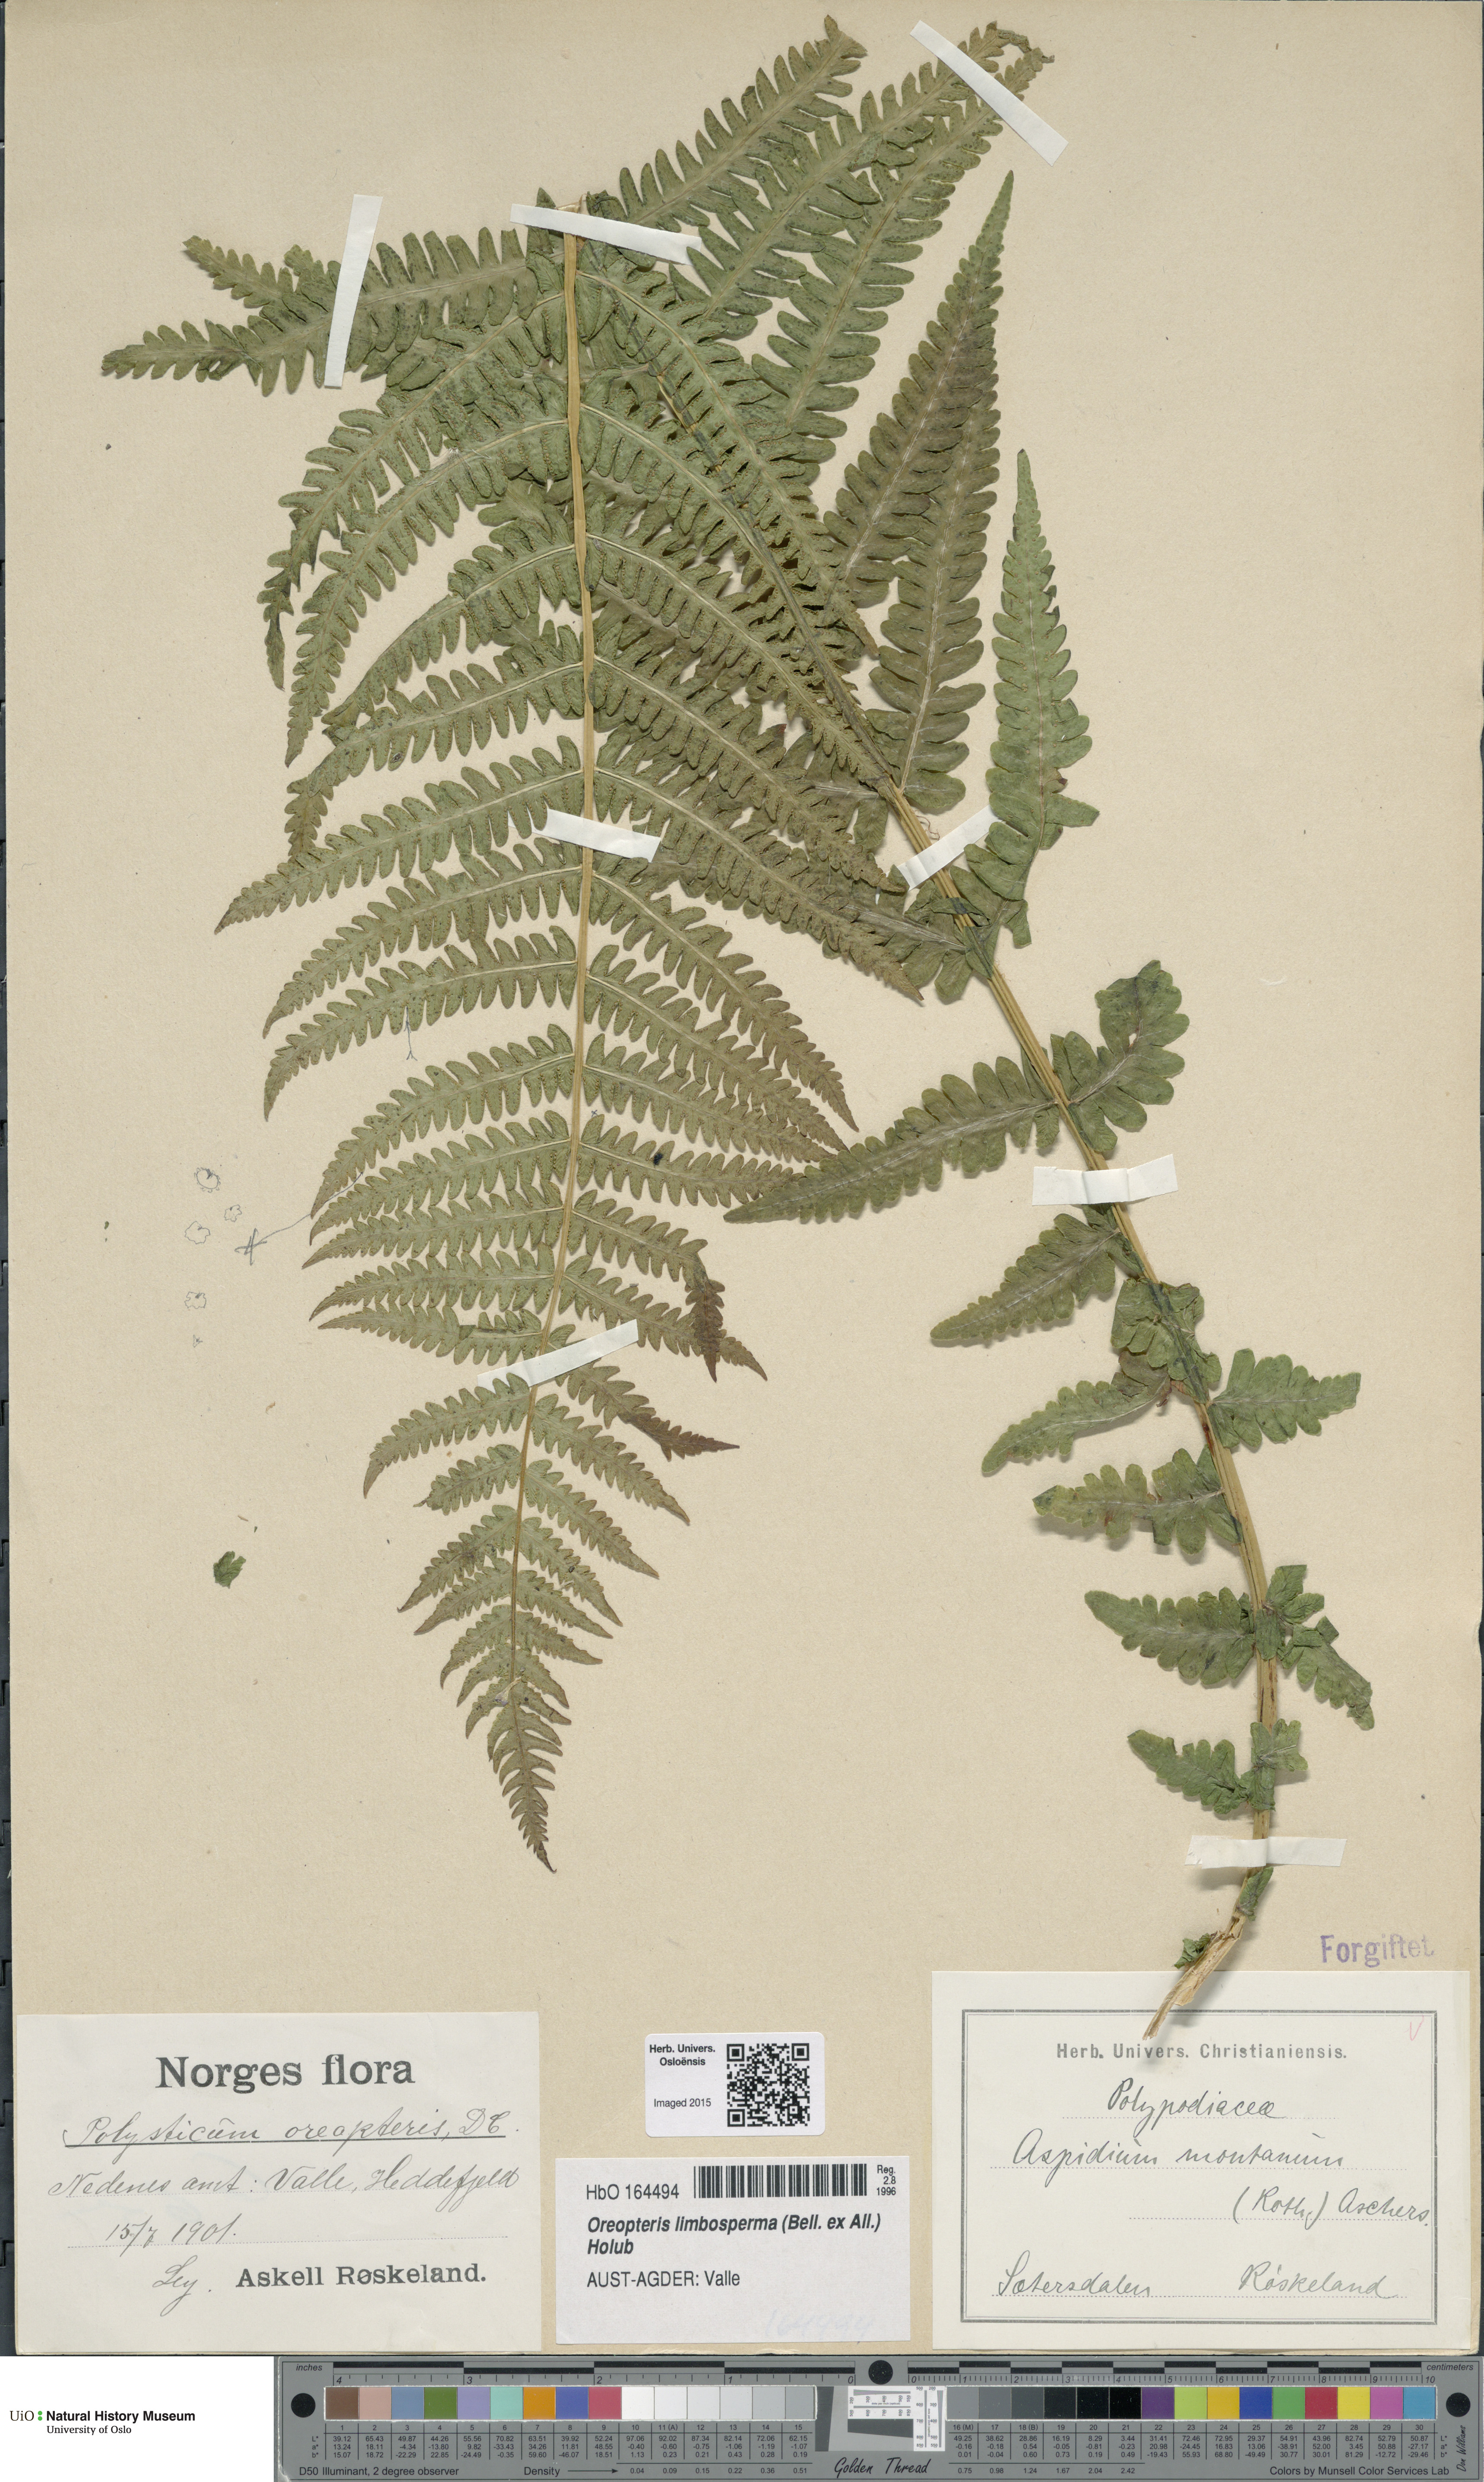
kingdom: Plantae
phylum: Tracheophyta
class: Polypodiopsida
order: Polypodiales
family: Thelypteridaceae
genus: Oreopteris
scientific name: Oreopteris limbosperma
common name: Lemon-scented fern
